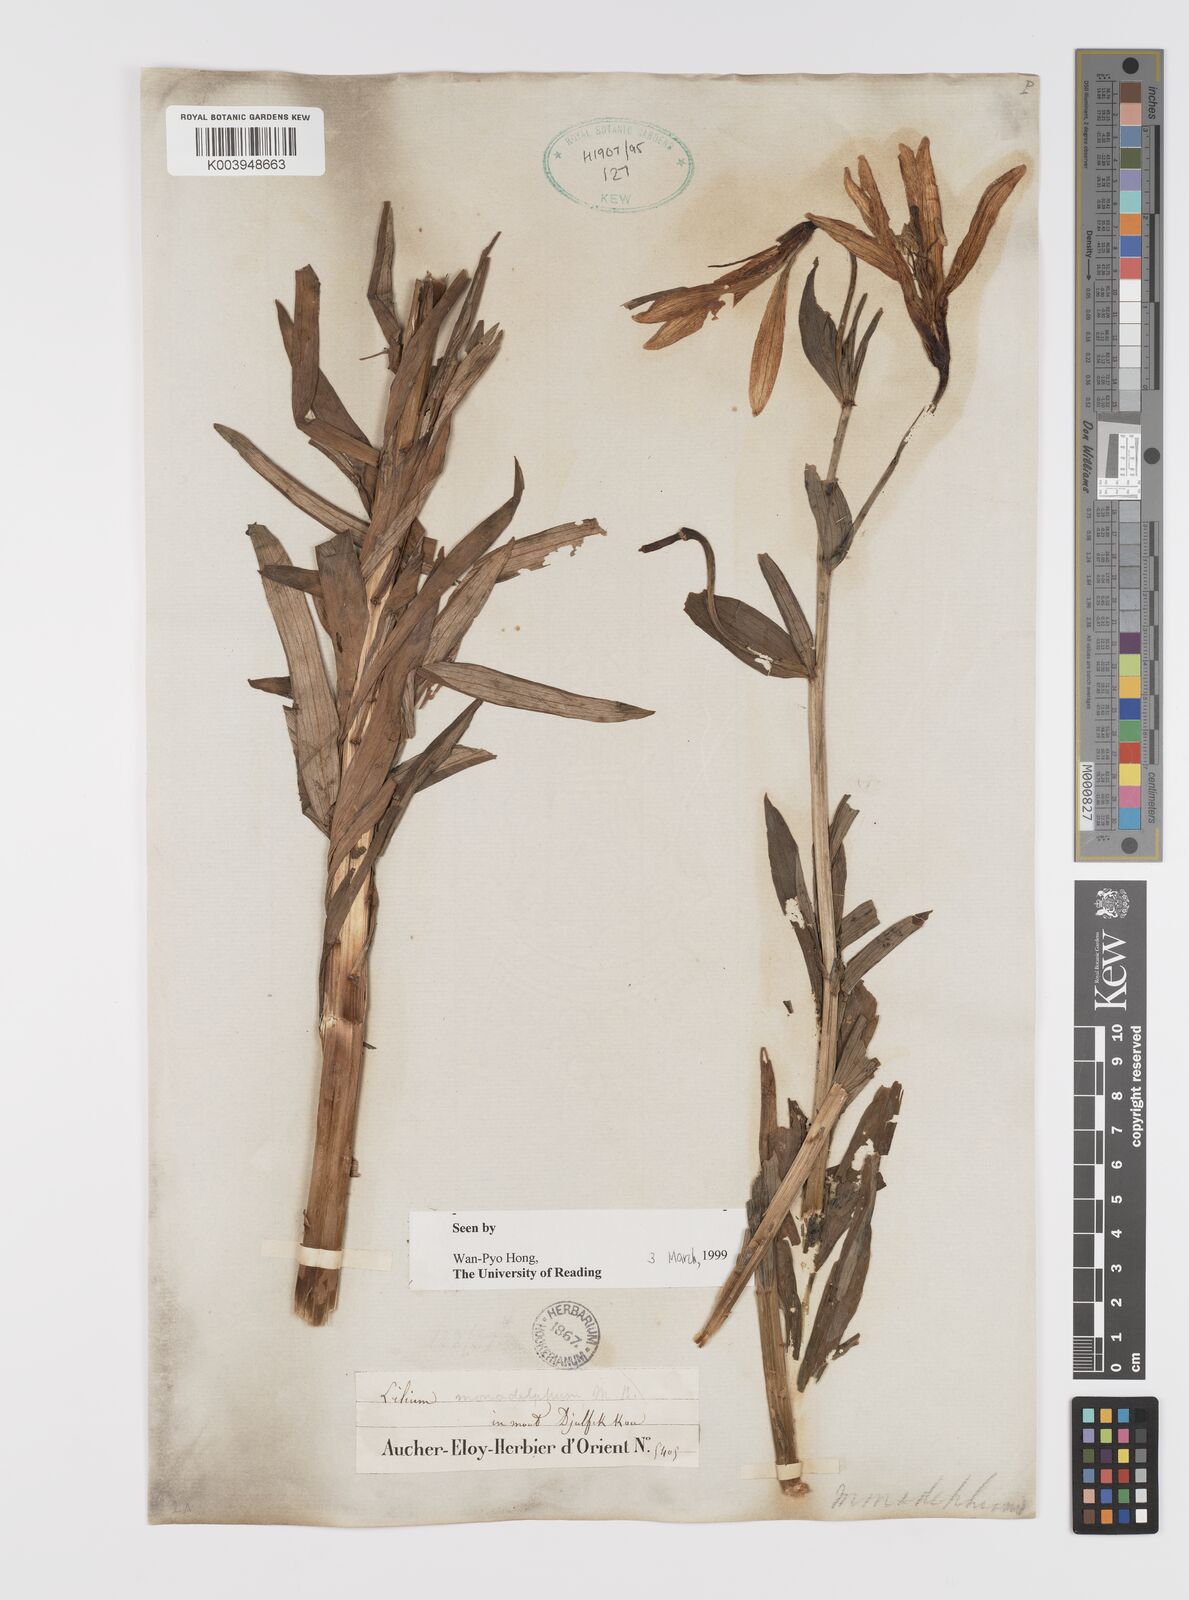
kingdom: Plantae
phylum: Tracheophyta
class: Liliopsida
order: Liliales
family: Liliaceae
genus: Lilium
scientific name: Lilium monadelphum
